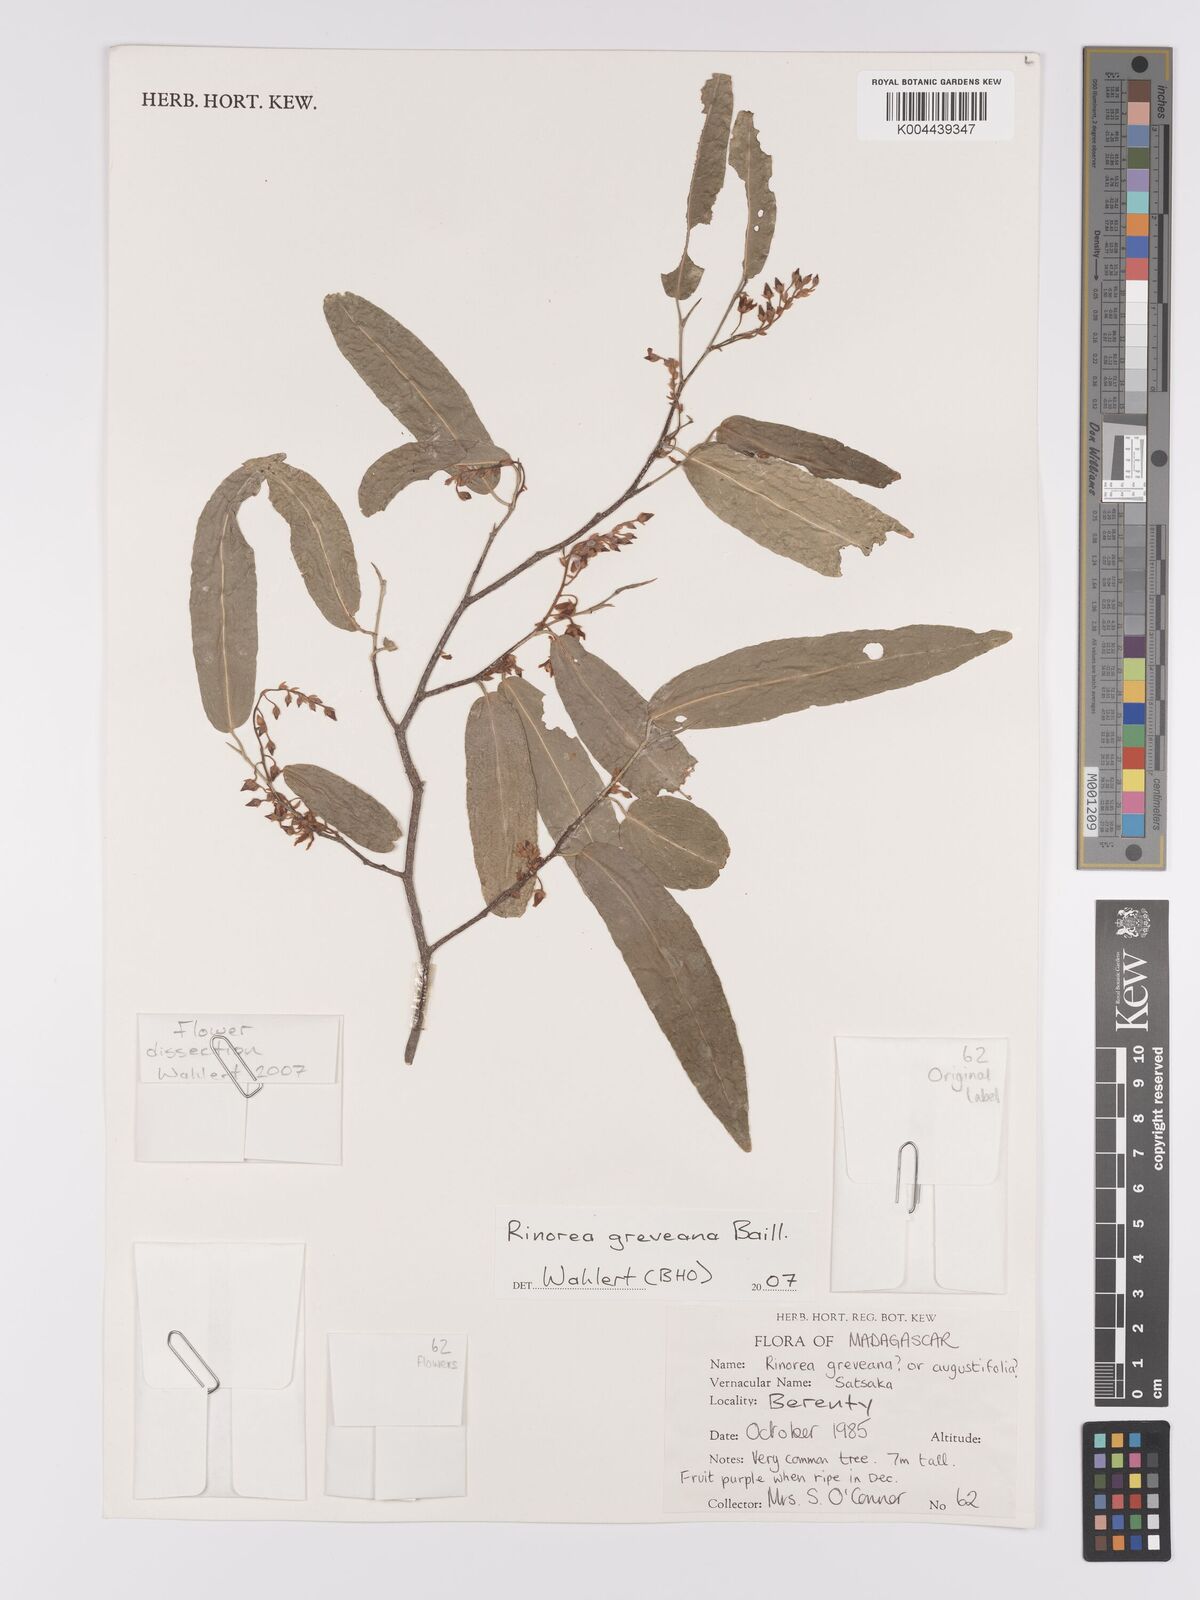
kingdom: Plantae
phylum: Tracheophyta
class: Magnoliopsida
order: Malpighiales
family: Violaceae
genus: Rinorea
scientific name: Rinorea greveana
